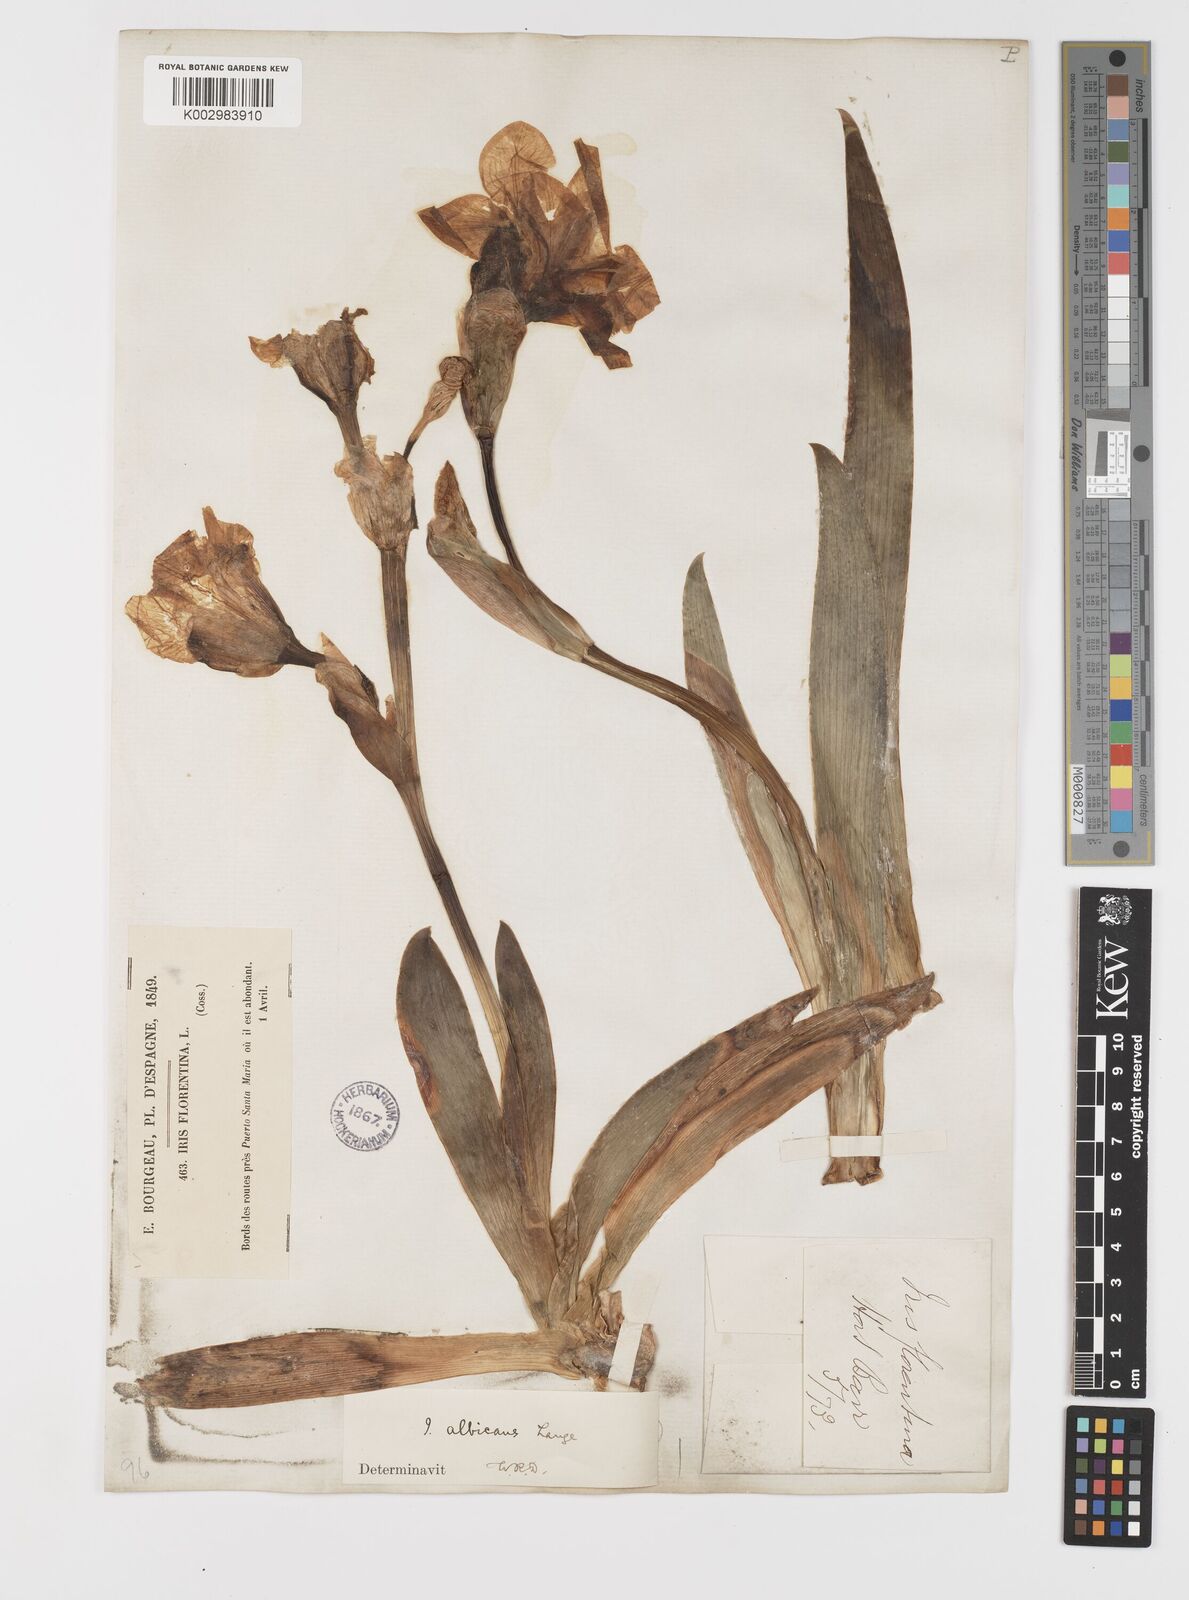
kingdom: Plantae
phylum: Tracheophyta
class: Liliopsida
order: Asparagales
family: Iridaceae
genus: Iris
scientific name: Iris florentina
